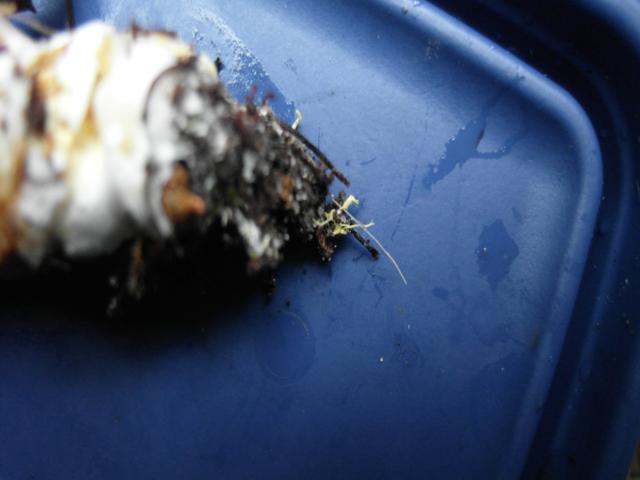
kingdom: Fungi
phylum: Basidiomycota
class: Agaricomycetes
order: Boletales
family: Boletaceae
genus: Xerocomus
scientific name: Xerocomus ferrugineus
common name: vaskeskinds-rørhat
